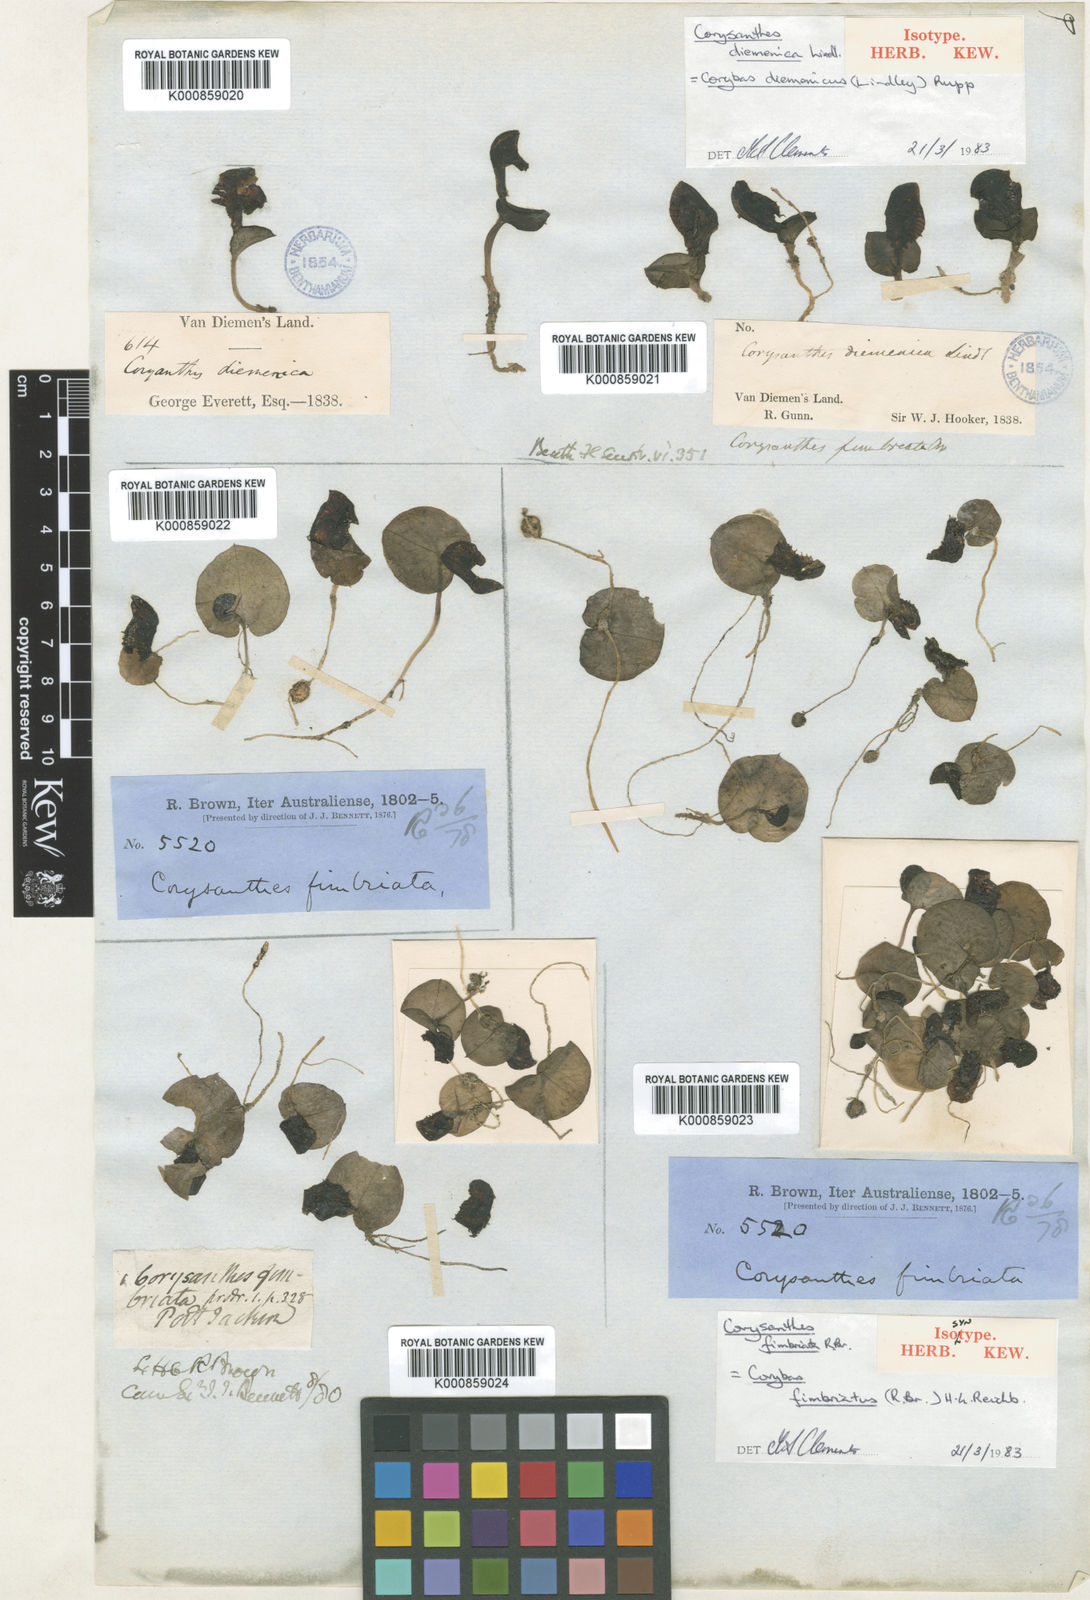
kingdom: Plantae
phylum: Tracheophyta
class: Liliopsida
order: Asparagales
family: Orchidaceae
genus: Corybas
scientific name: Corybas fimbriatus
